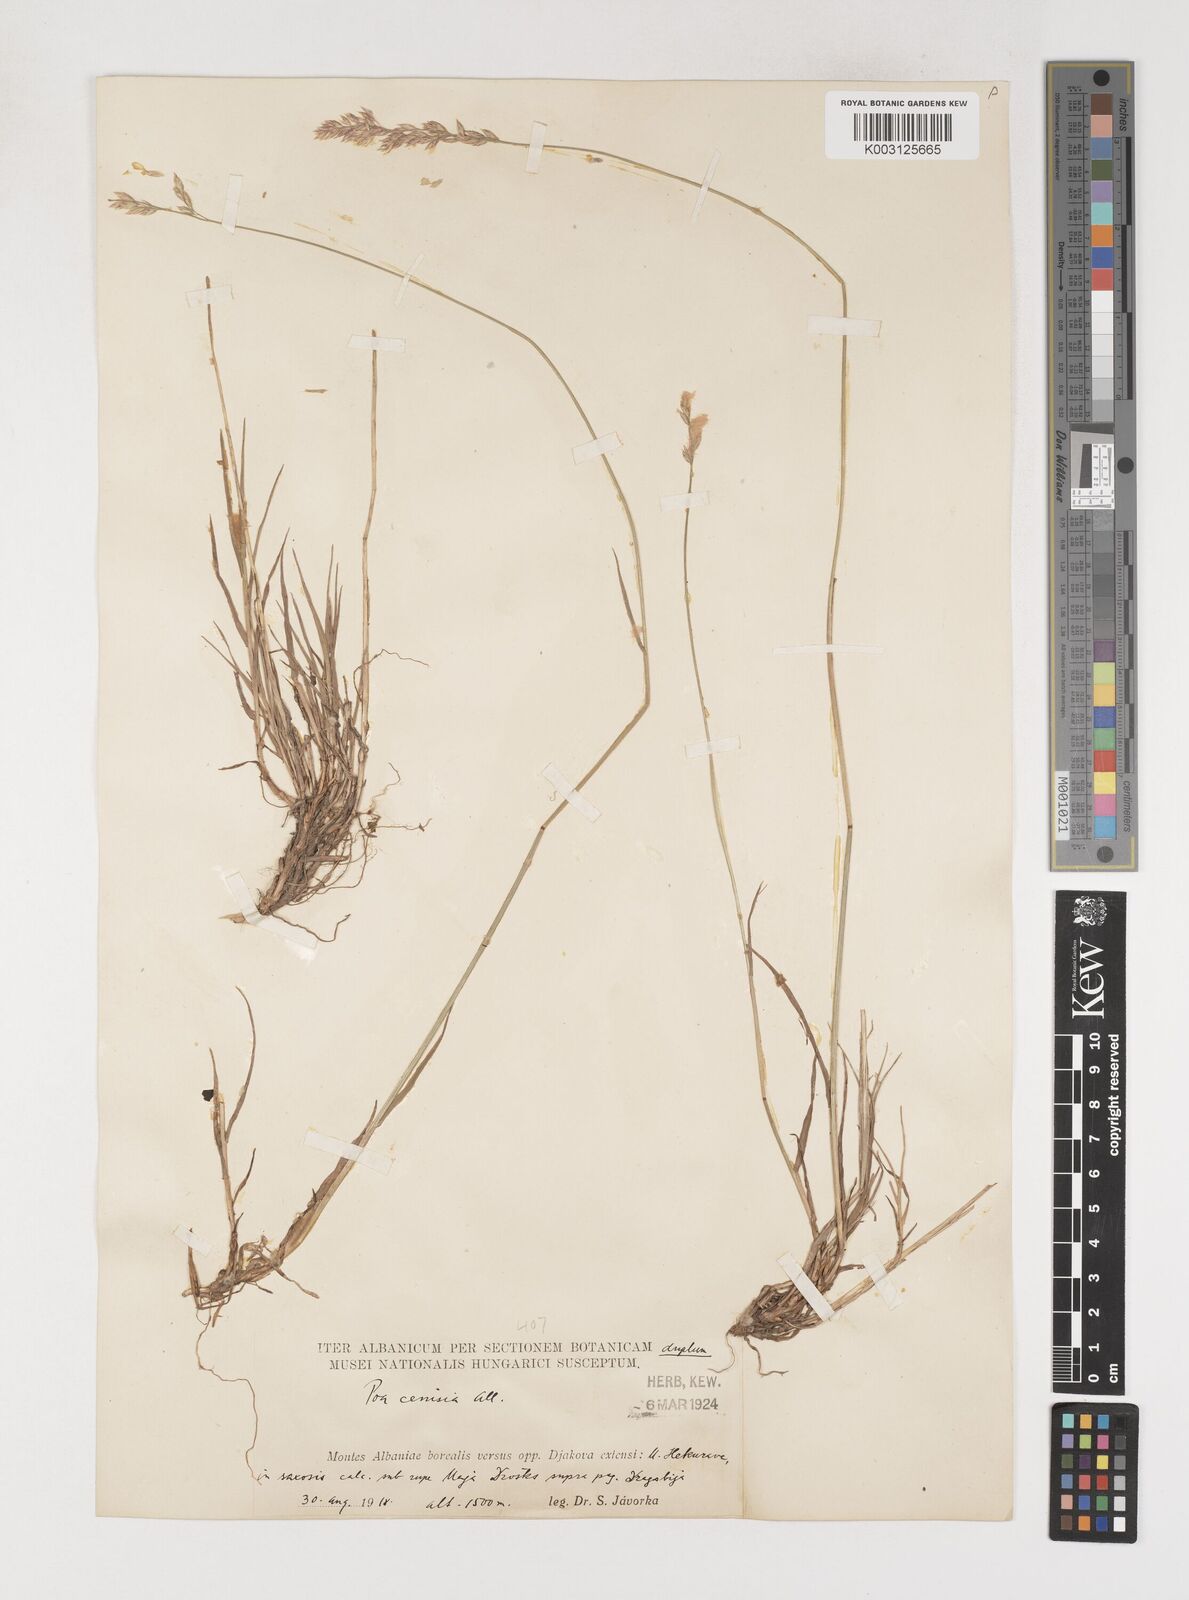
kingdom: Plantae
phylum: Tracheophyta
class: Liliopsida
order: Poales
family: Poaceae
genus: Poa
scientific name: Poa
